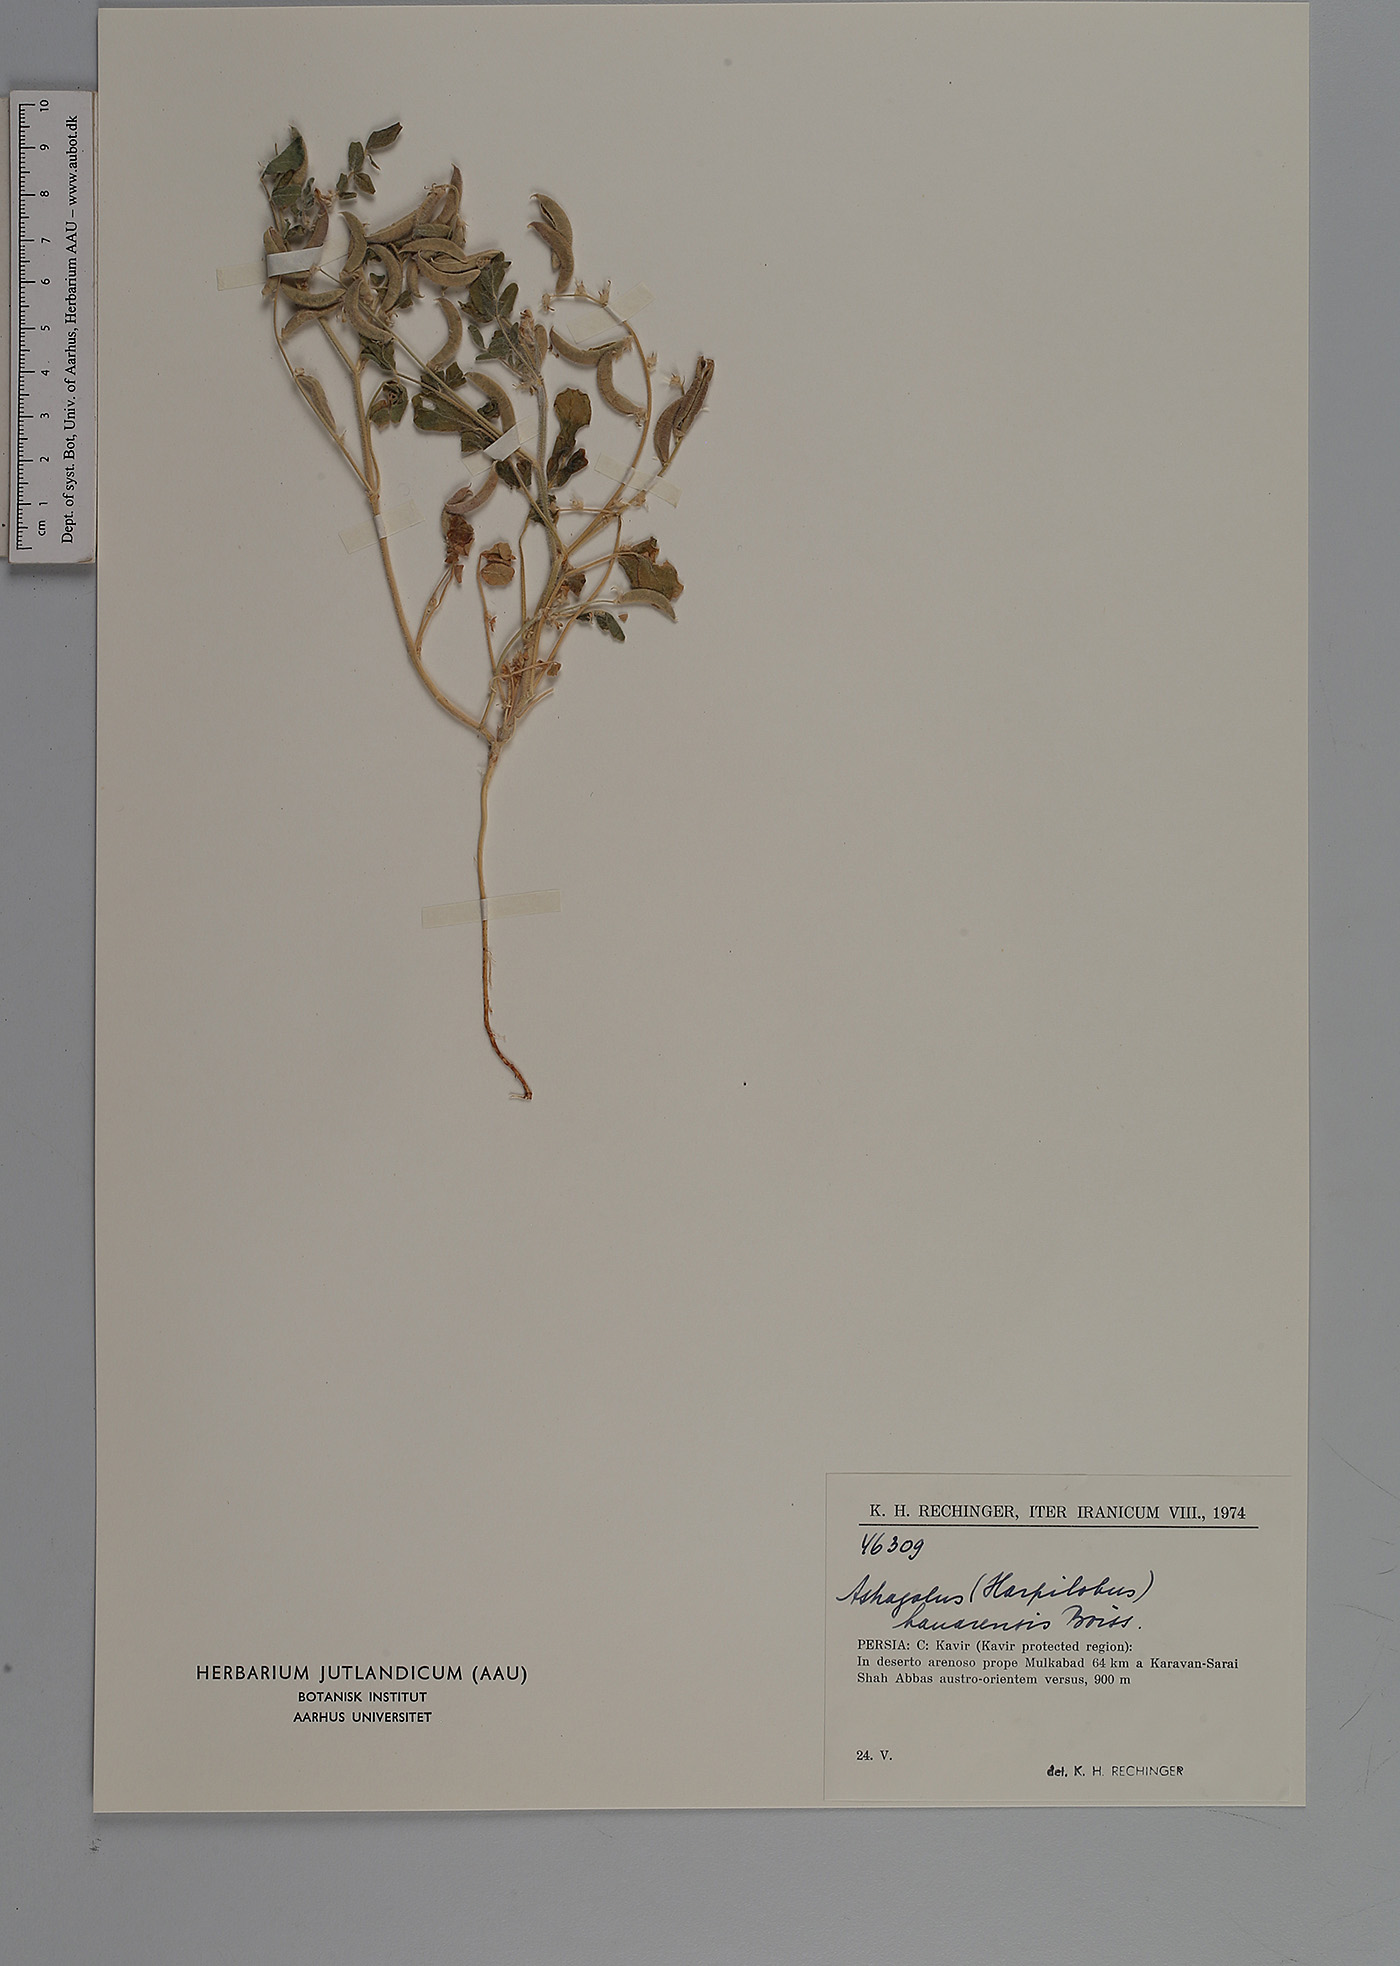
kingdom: Plantae
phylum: Tracheophyta
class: Magnoliopsida
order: Fabales
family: Fabaceae
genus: Astragalus
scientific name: Astragalus arpilobus
